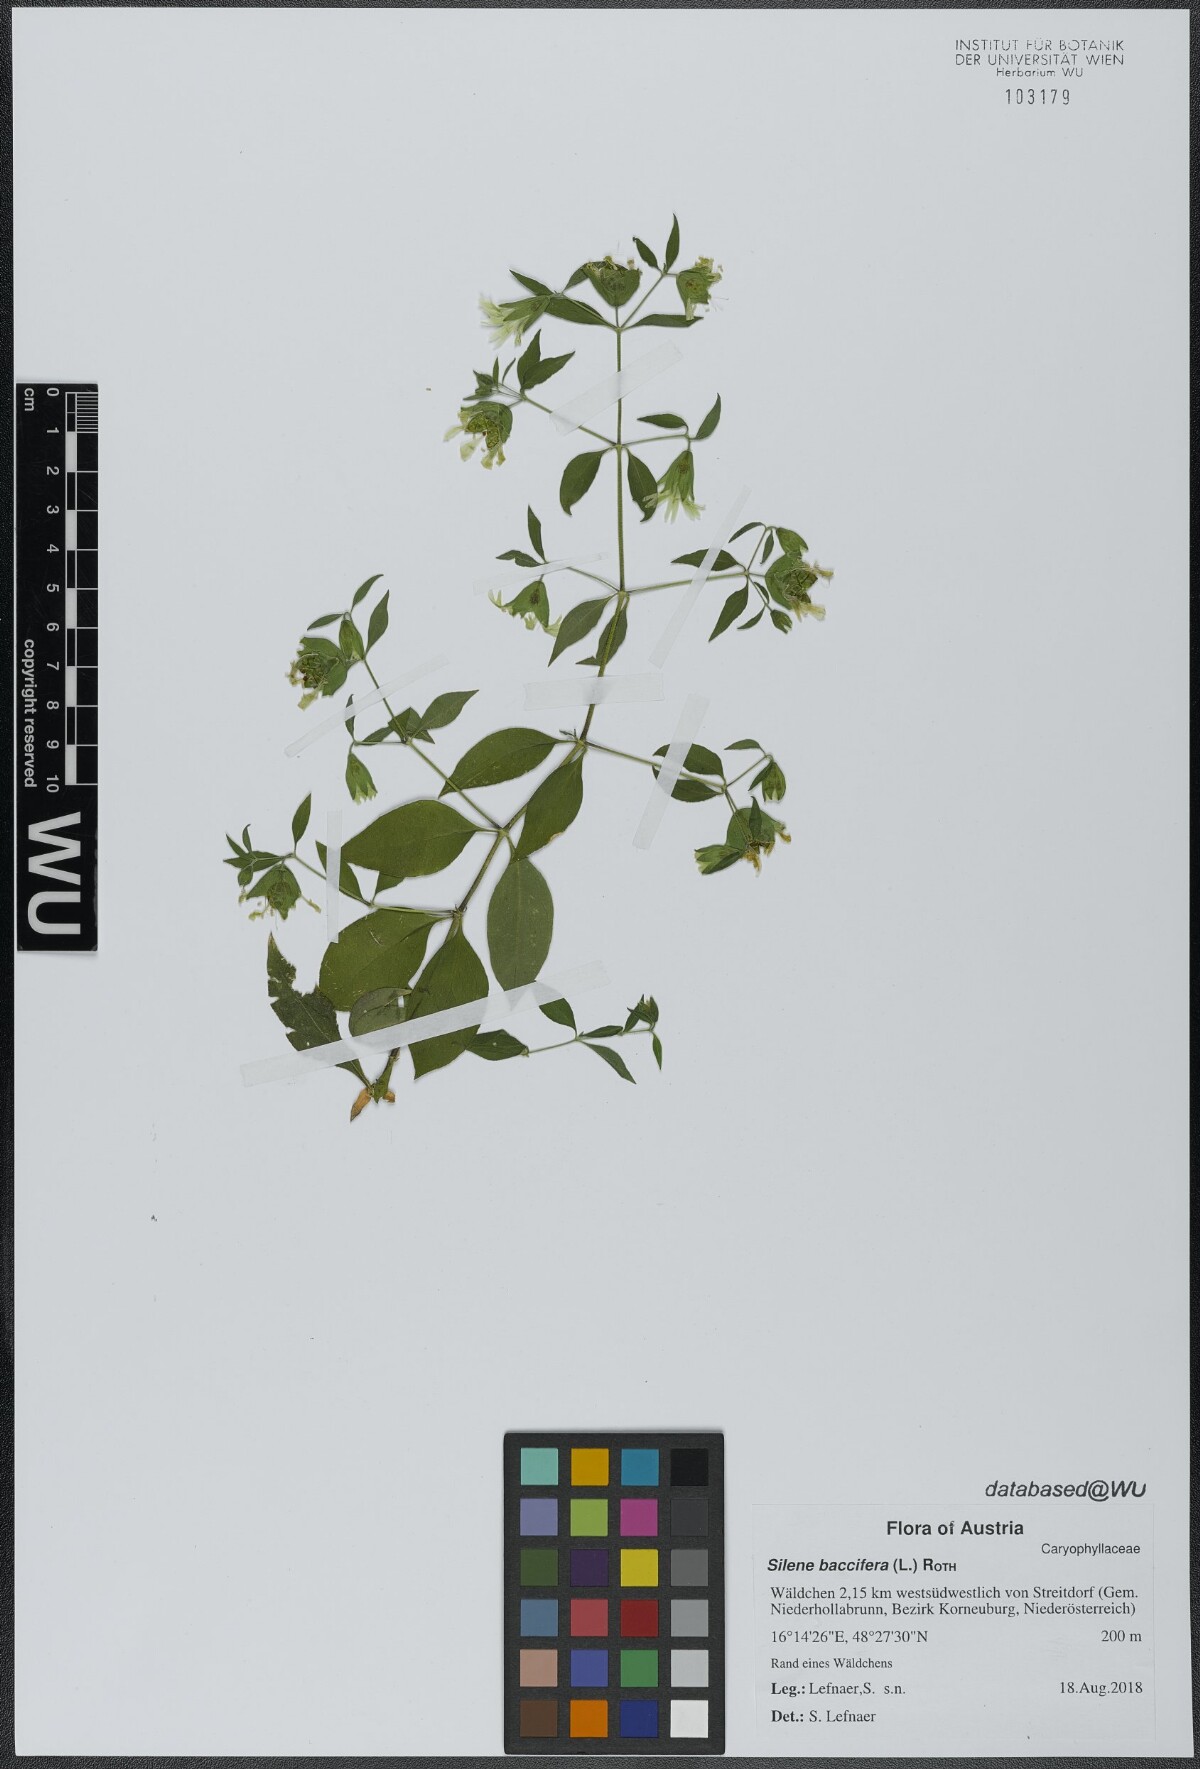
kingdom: Plantae
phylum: Tracheophyta
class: Magnoliopsida
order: Caryophyllales
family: Caryophyllaceae
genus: Silene
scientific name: Silene baccifera
